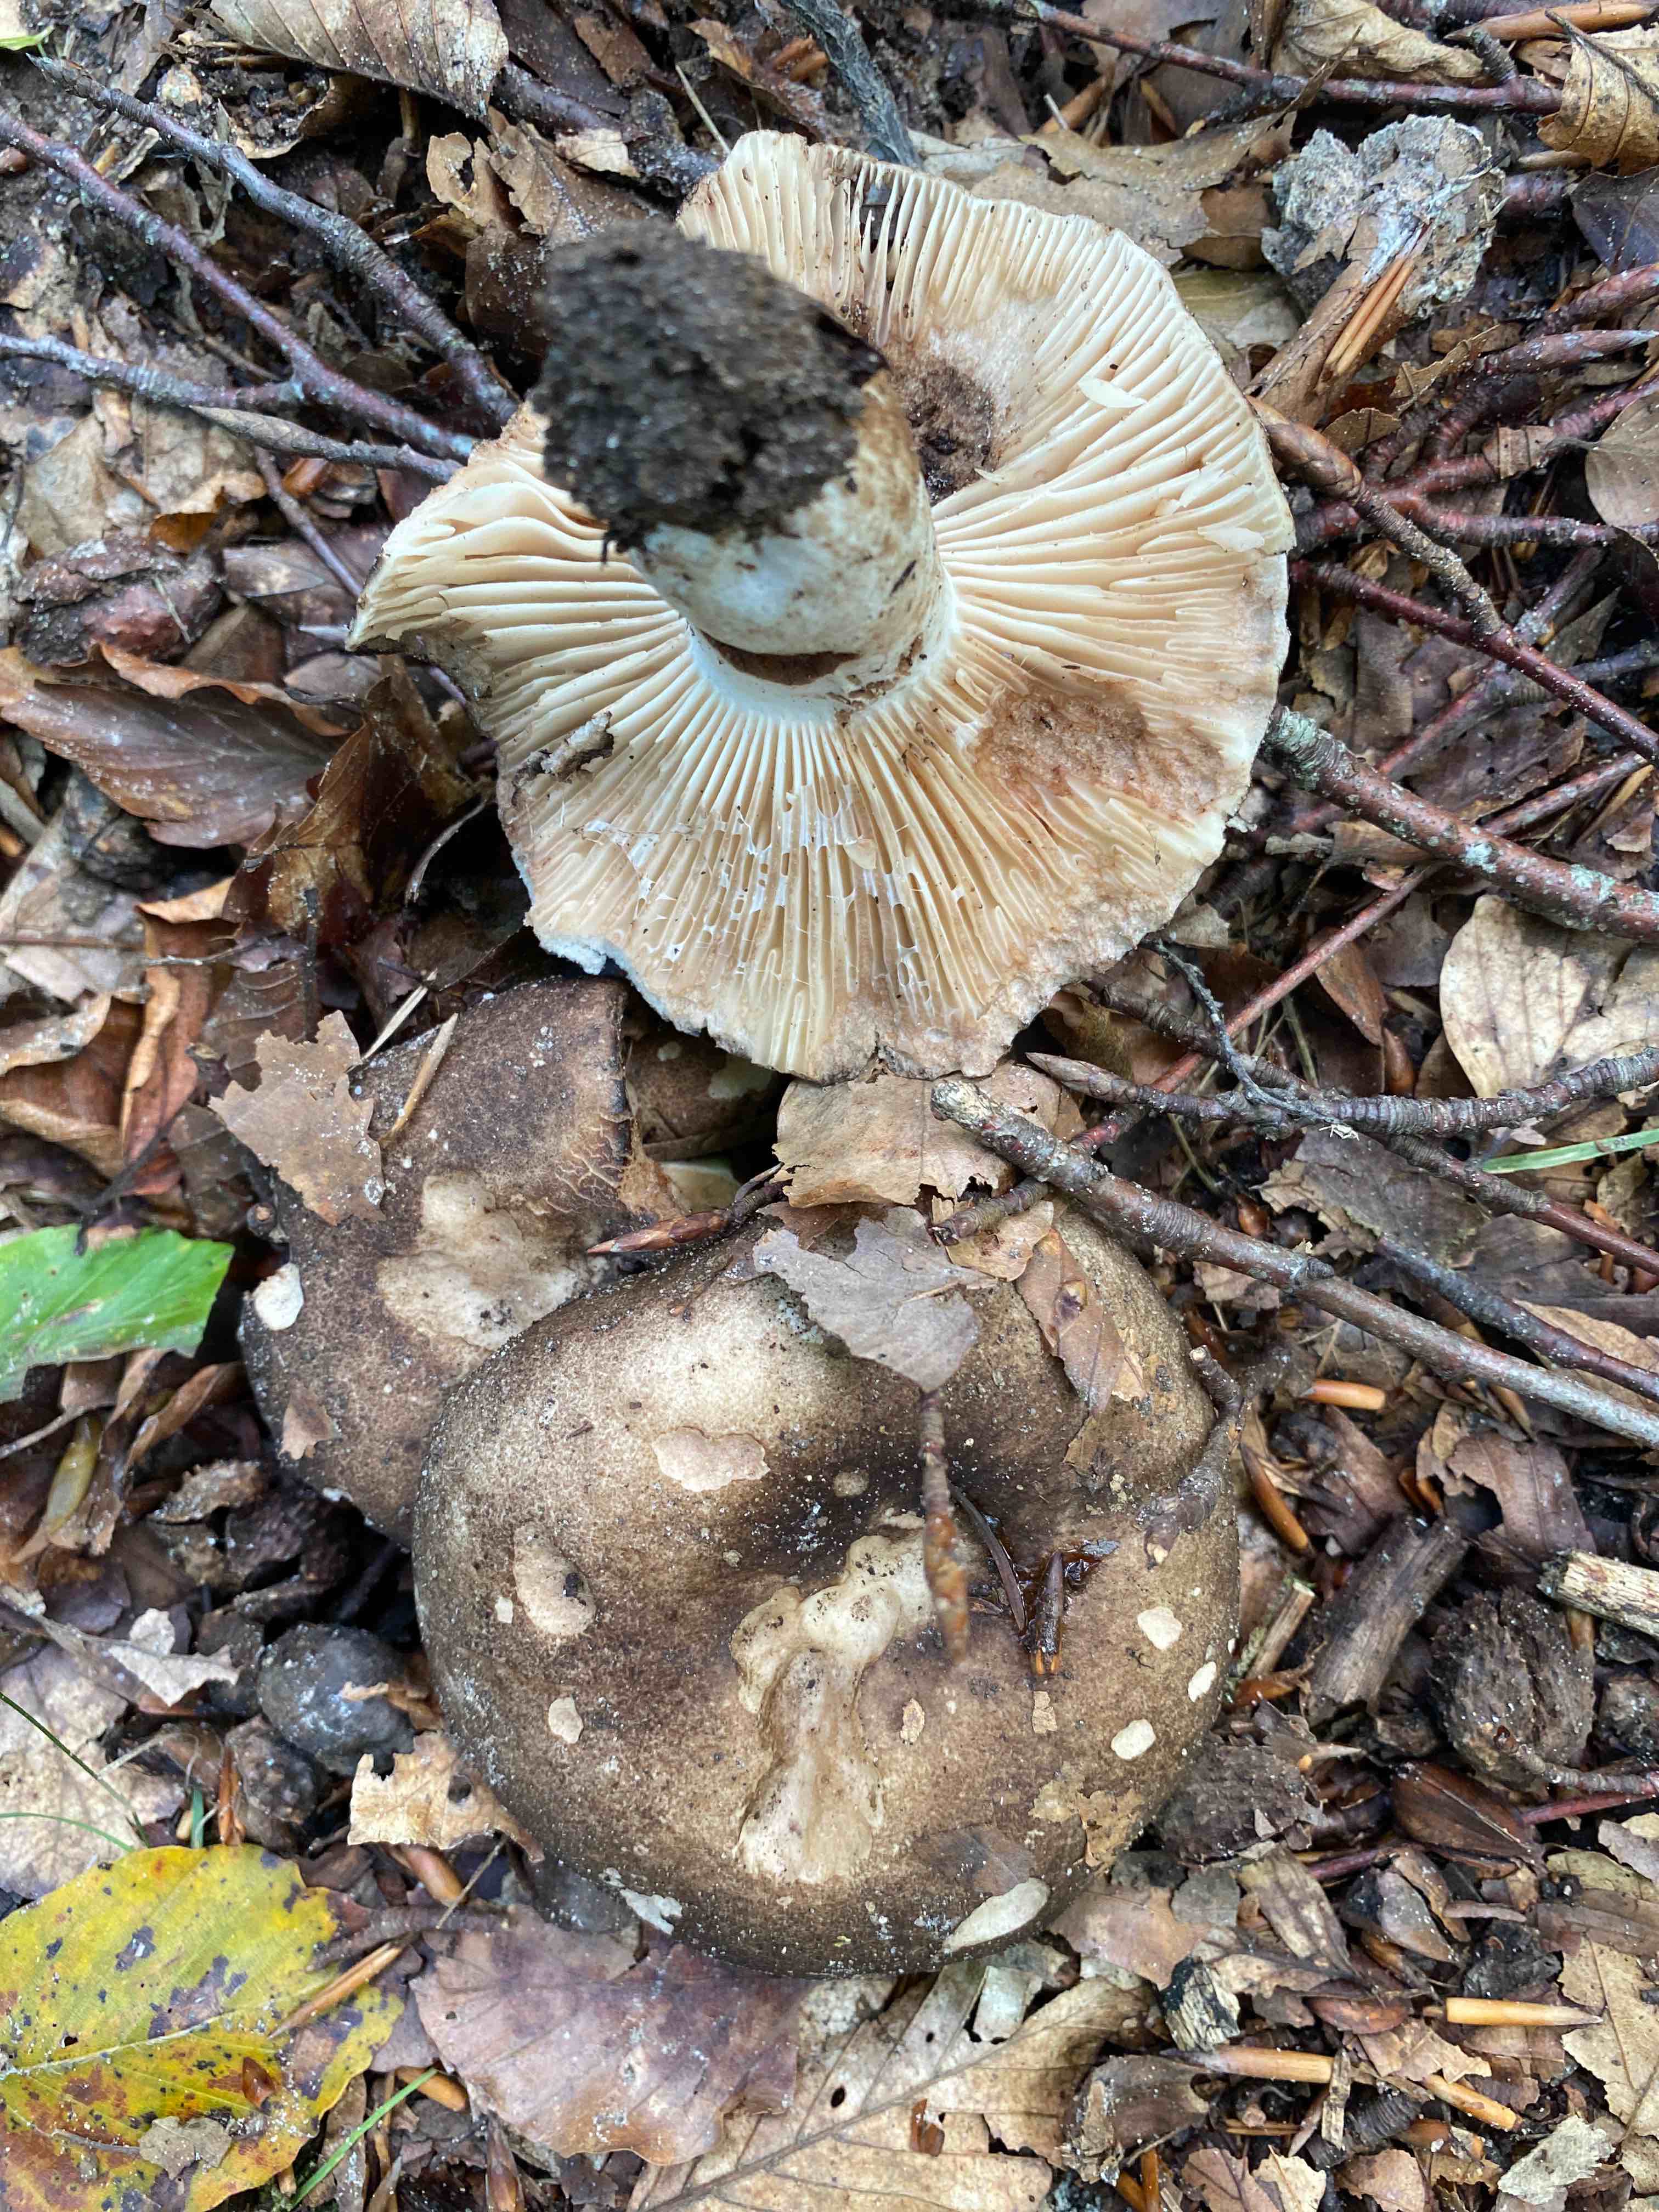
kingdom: Fungi
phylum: Basidiomycota
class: Agaricomycetes
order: Russulales
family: Russulaceae
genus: Russula
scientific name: Russula adusta
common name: sværtende skørhat
